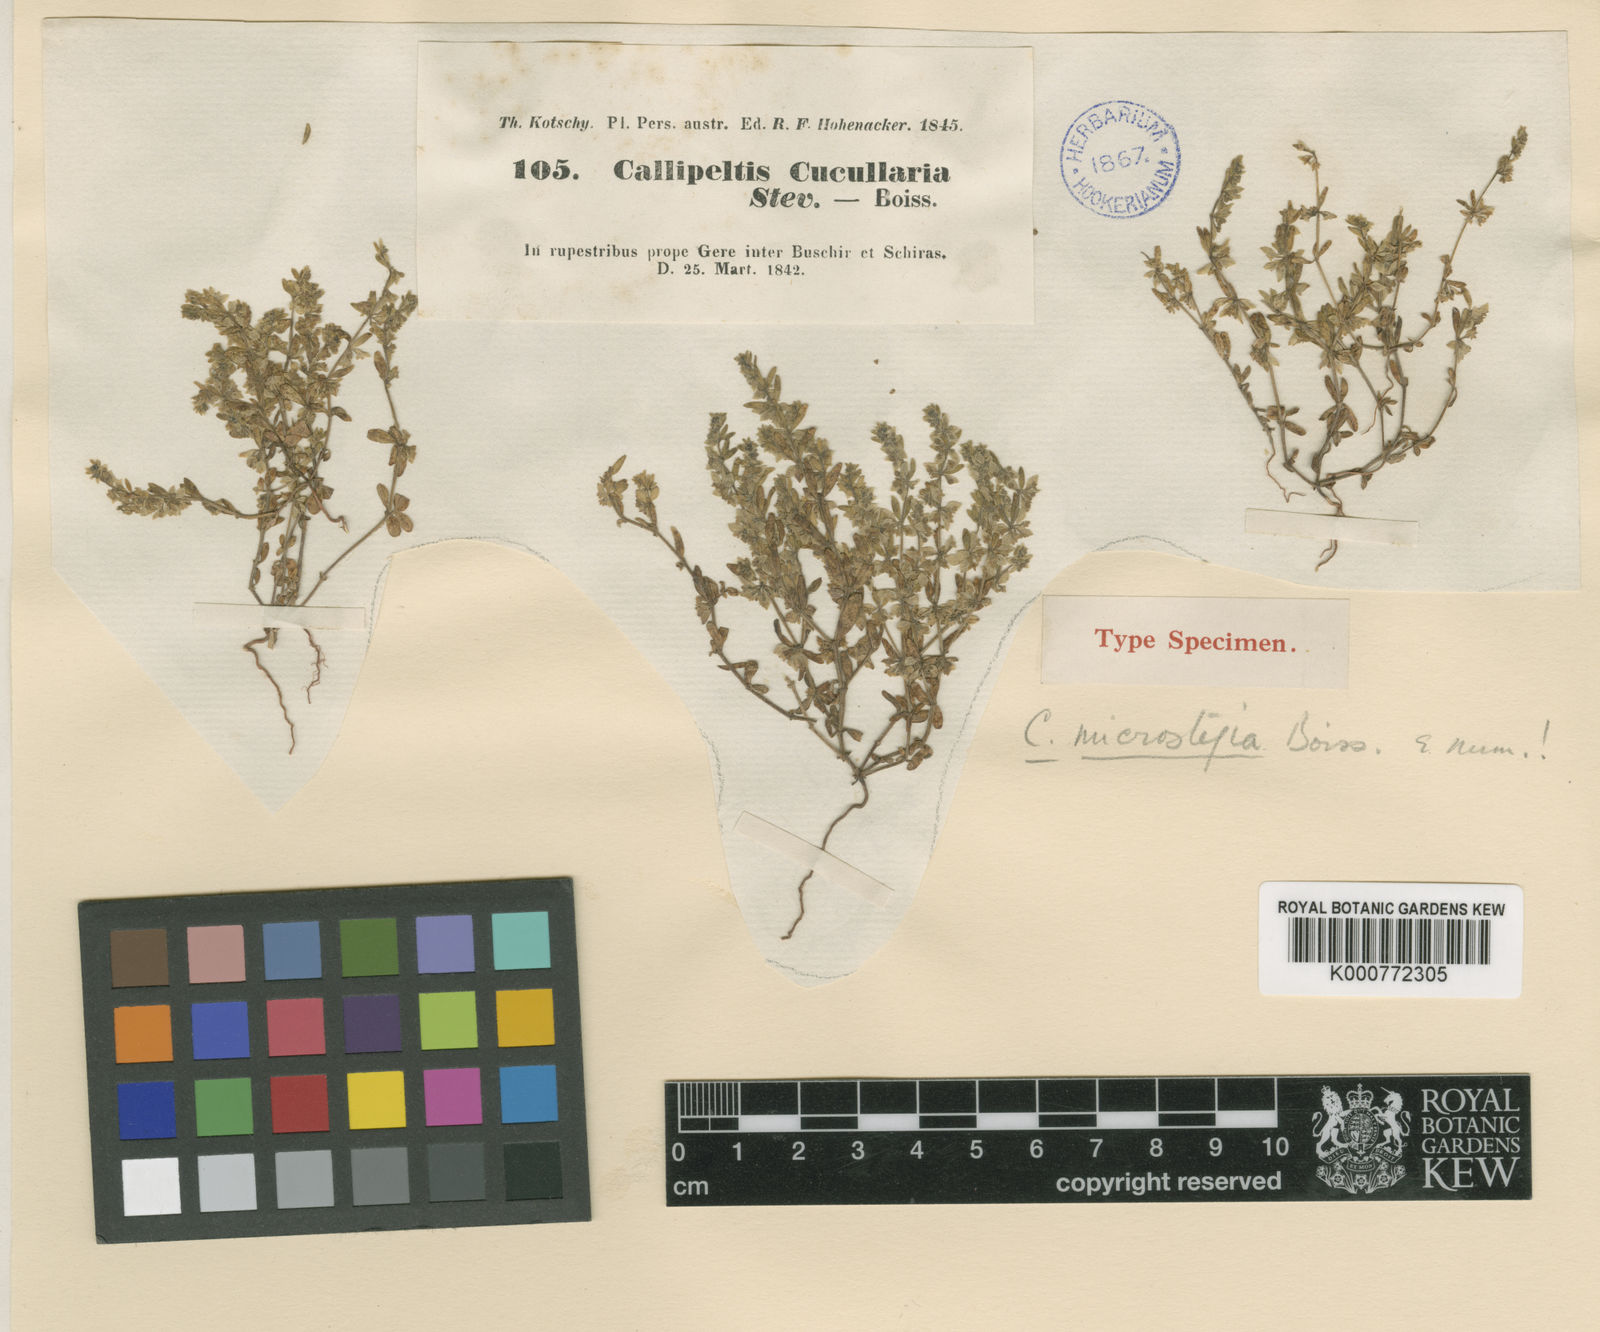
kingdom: Plantae
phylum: Tracheophyta
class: Magnoliopsida
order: Gentianales
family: Rubiaceae
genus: Callipeltis
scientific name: Callipeltis microstegia
